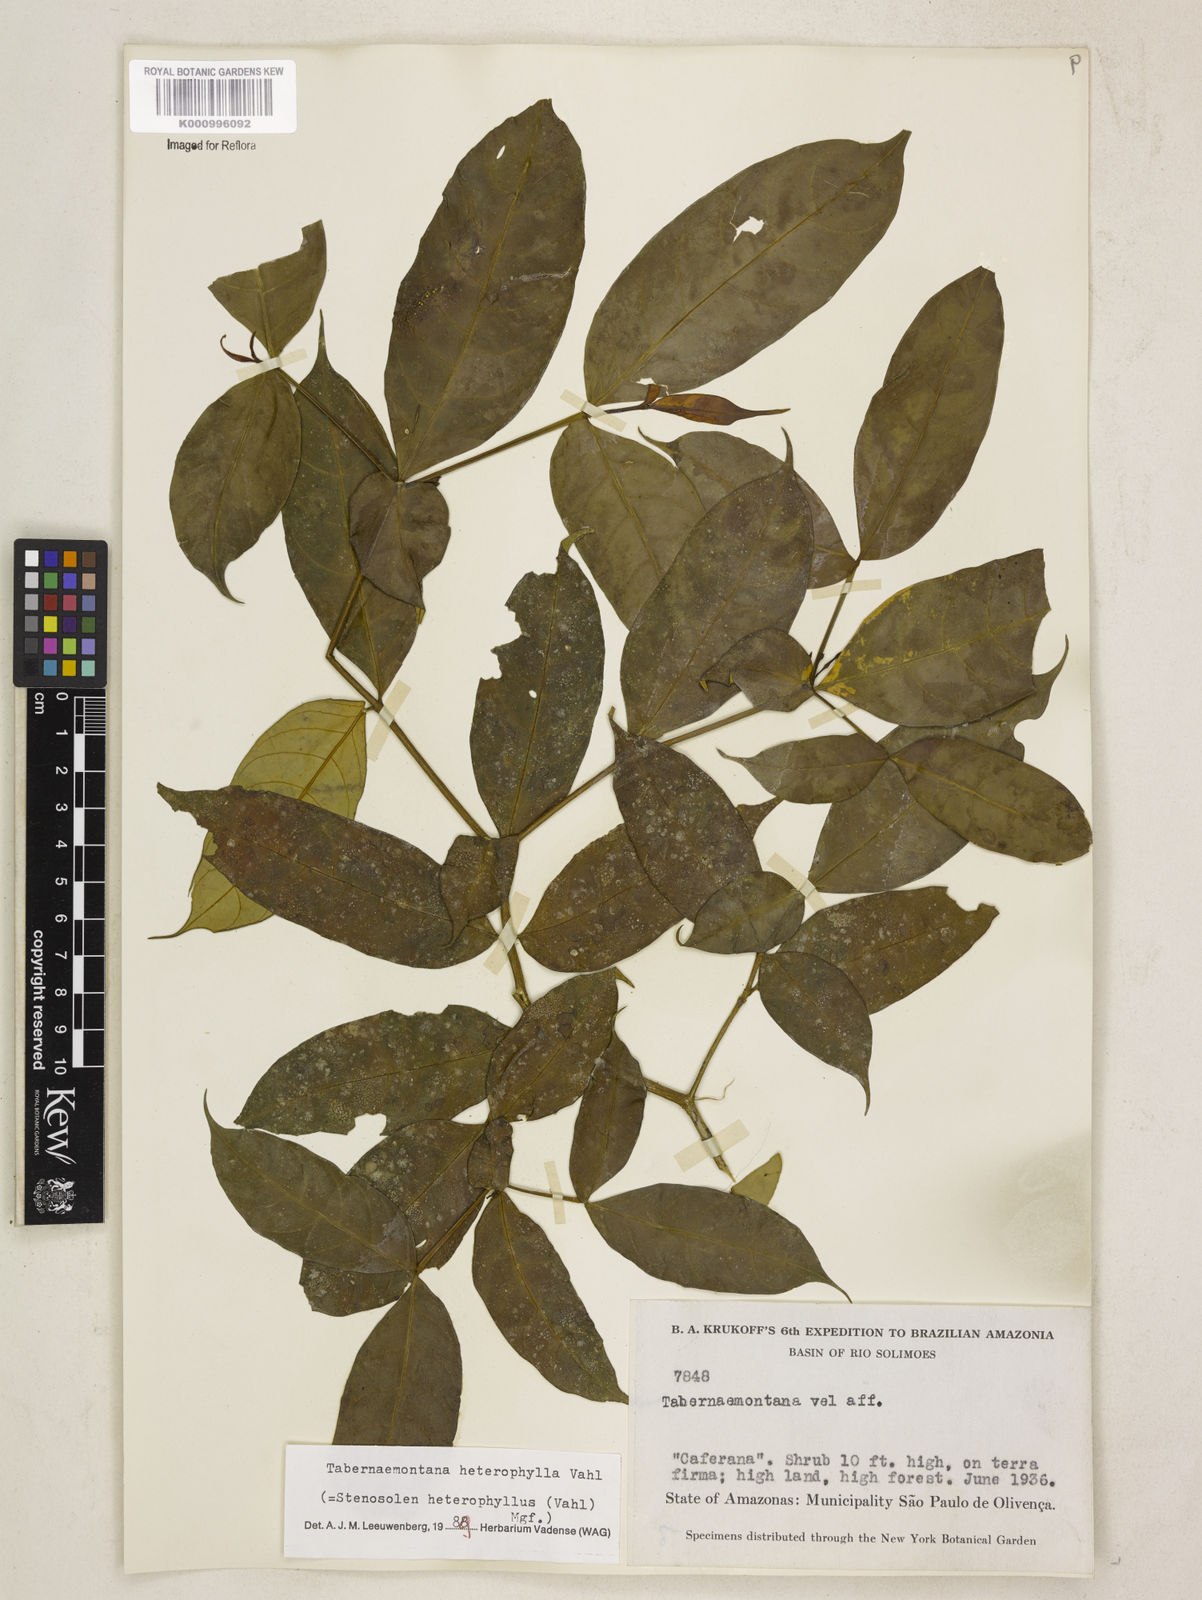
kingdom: Plantae
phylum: Tracheophyta
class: Magnoliopsida
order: Gentianales
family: Apocynaceae
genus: Tabernaemontana
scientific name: Tabernaemontana heterophylla
